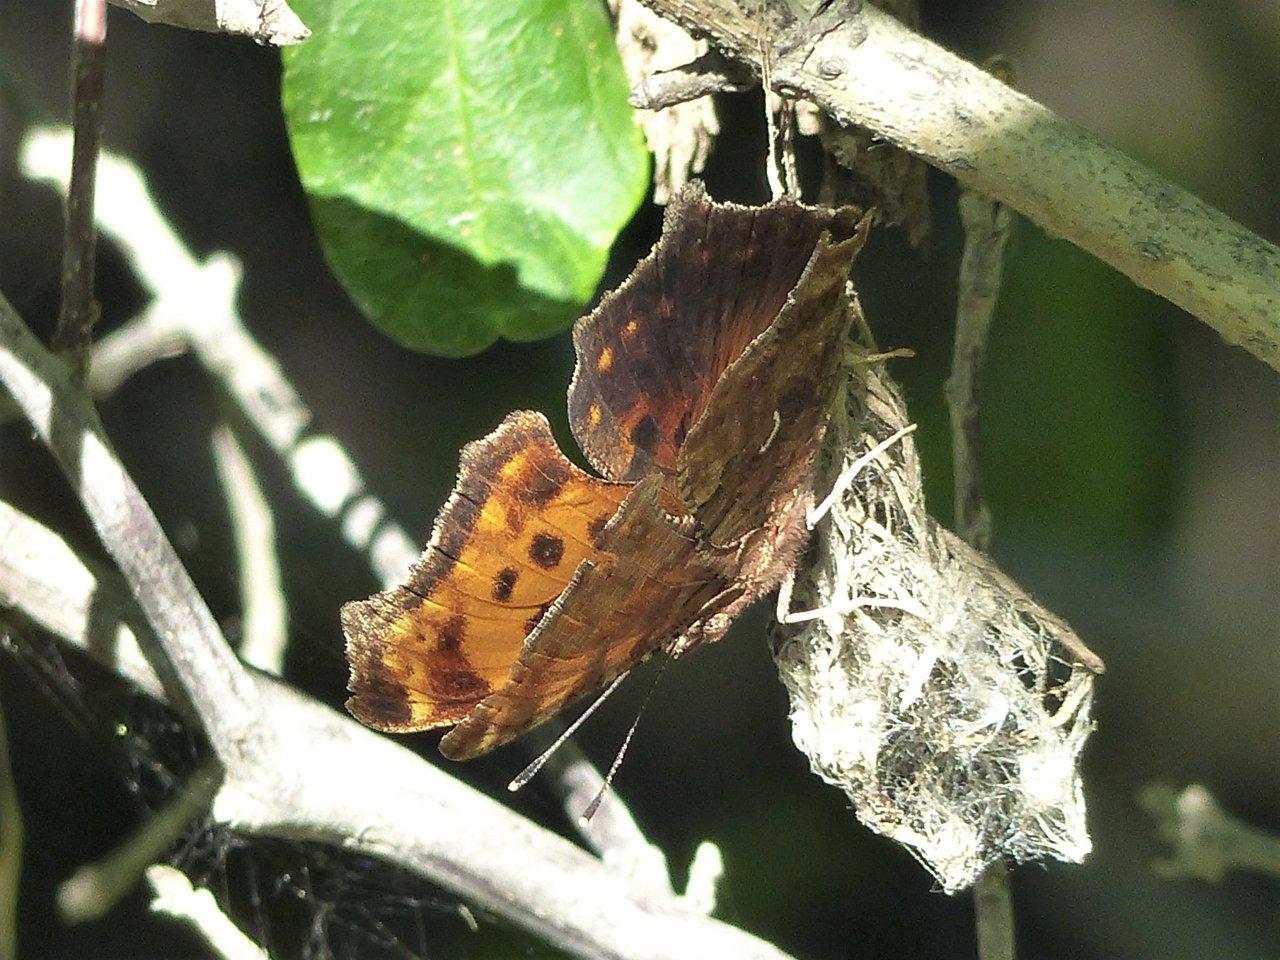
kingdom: Animalia
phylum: Arthropoda
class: Insecta
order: Lepidoptera
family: Nymphalidae
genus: Polygonia
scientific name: Polygonia comma
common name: Eastern Comma
